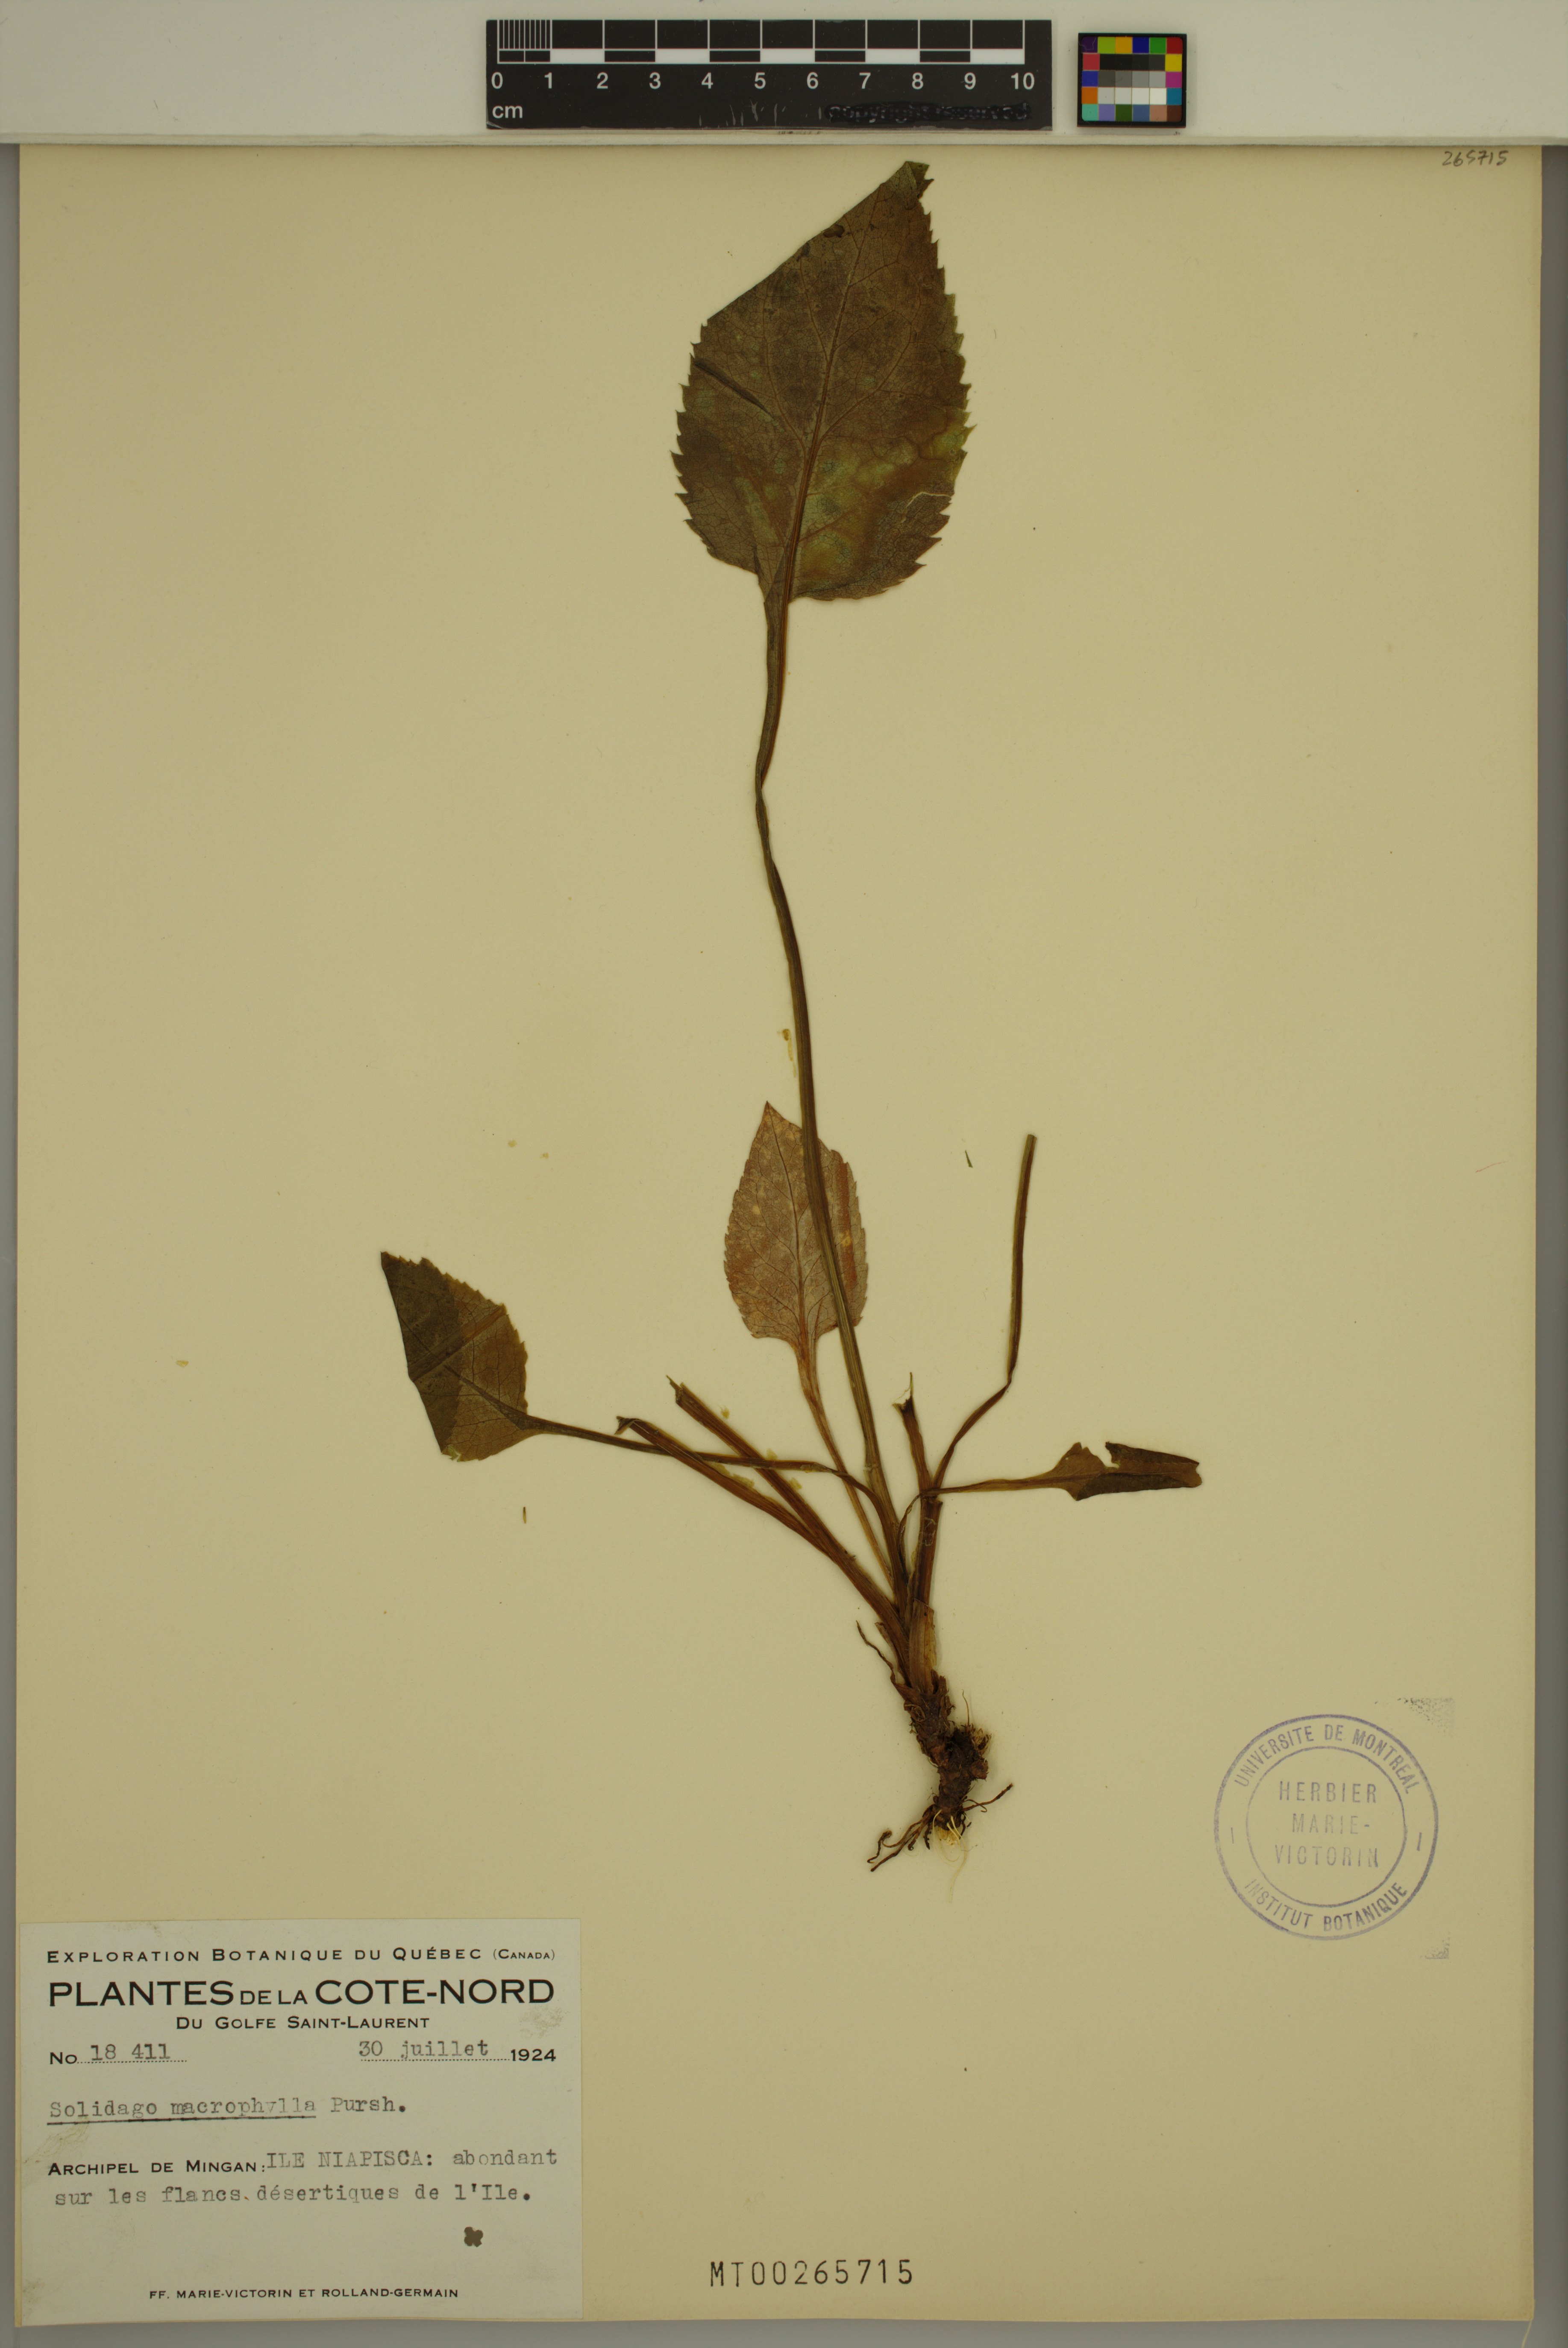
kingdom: Plantae
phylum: Tracheophyta
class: Magnoliopsida
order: Asterales
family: Asteraceae
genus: Solidago
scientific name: Solidago macrophylla
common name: Large-leaved goldenrod
